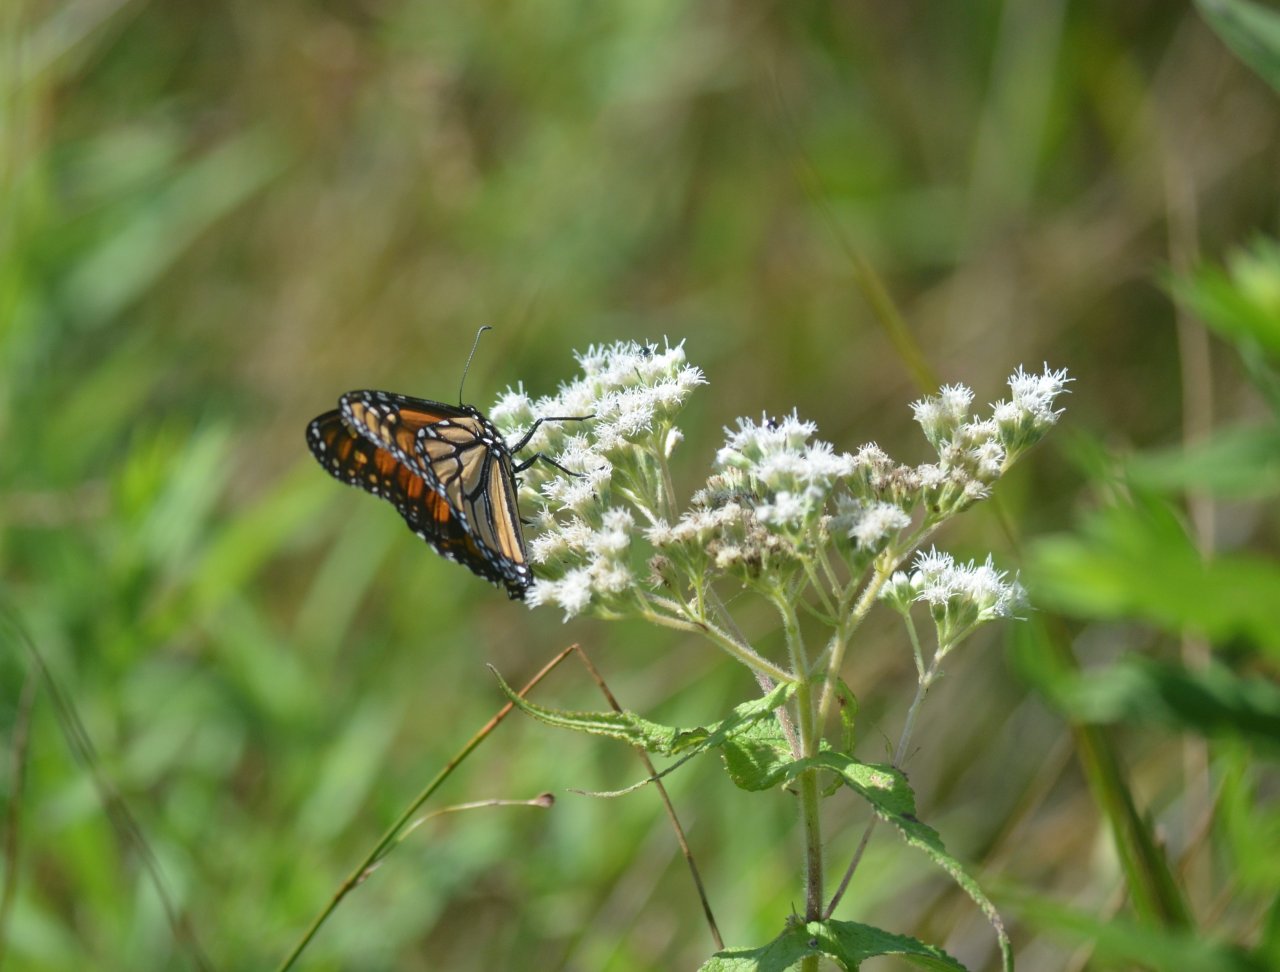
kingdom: Animalia
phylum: Arthropoda
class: Insecta
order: Lepidoptera
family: Nymphalidae
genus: Danaus
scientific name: Danaus plexippus
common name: Monarch
